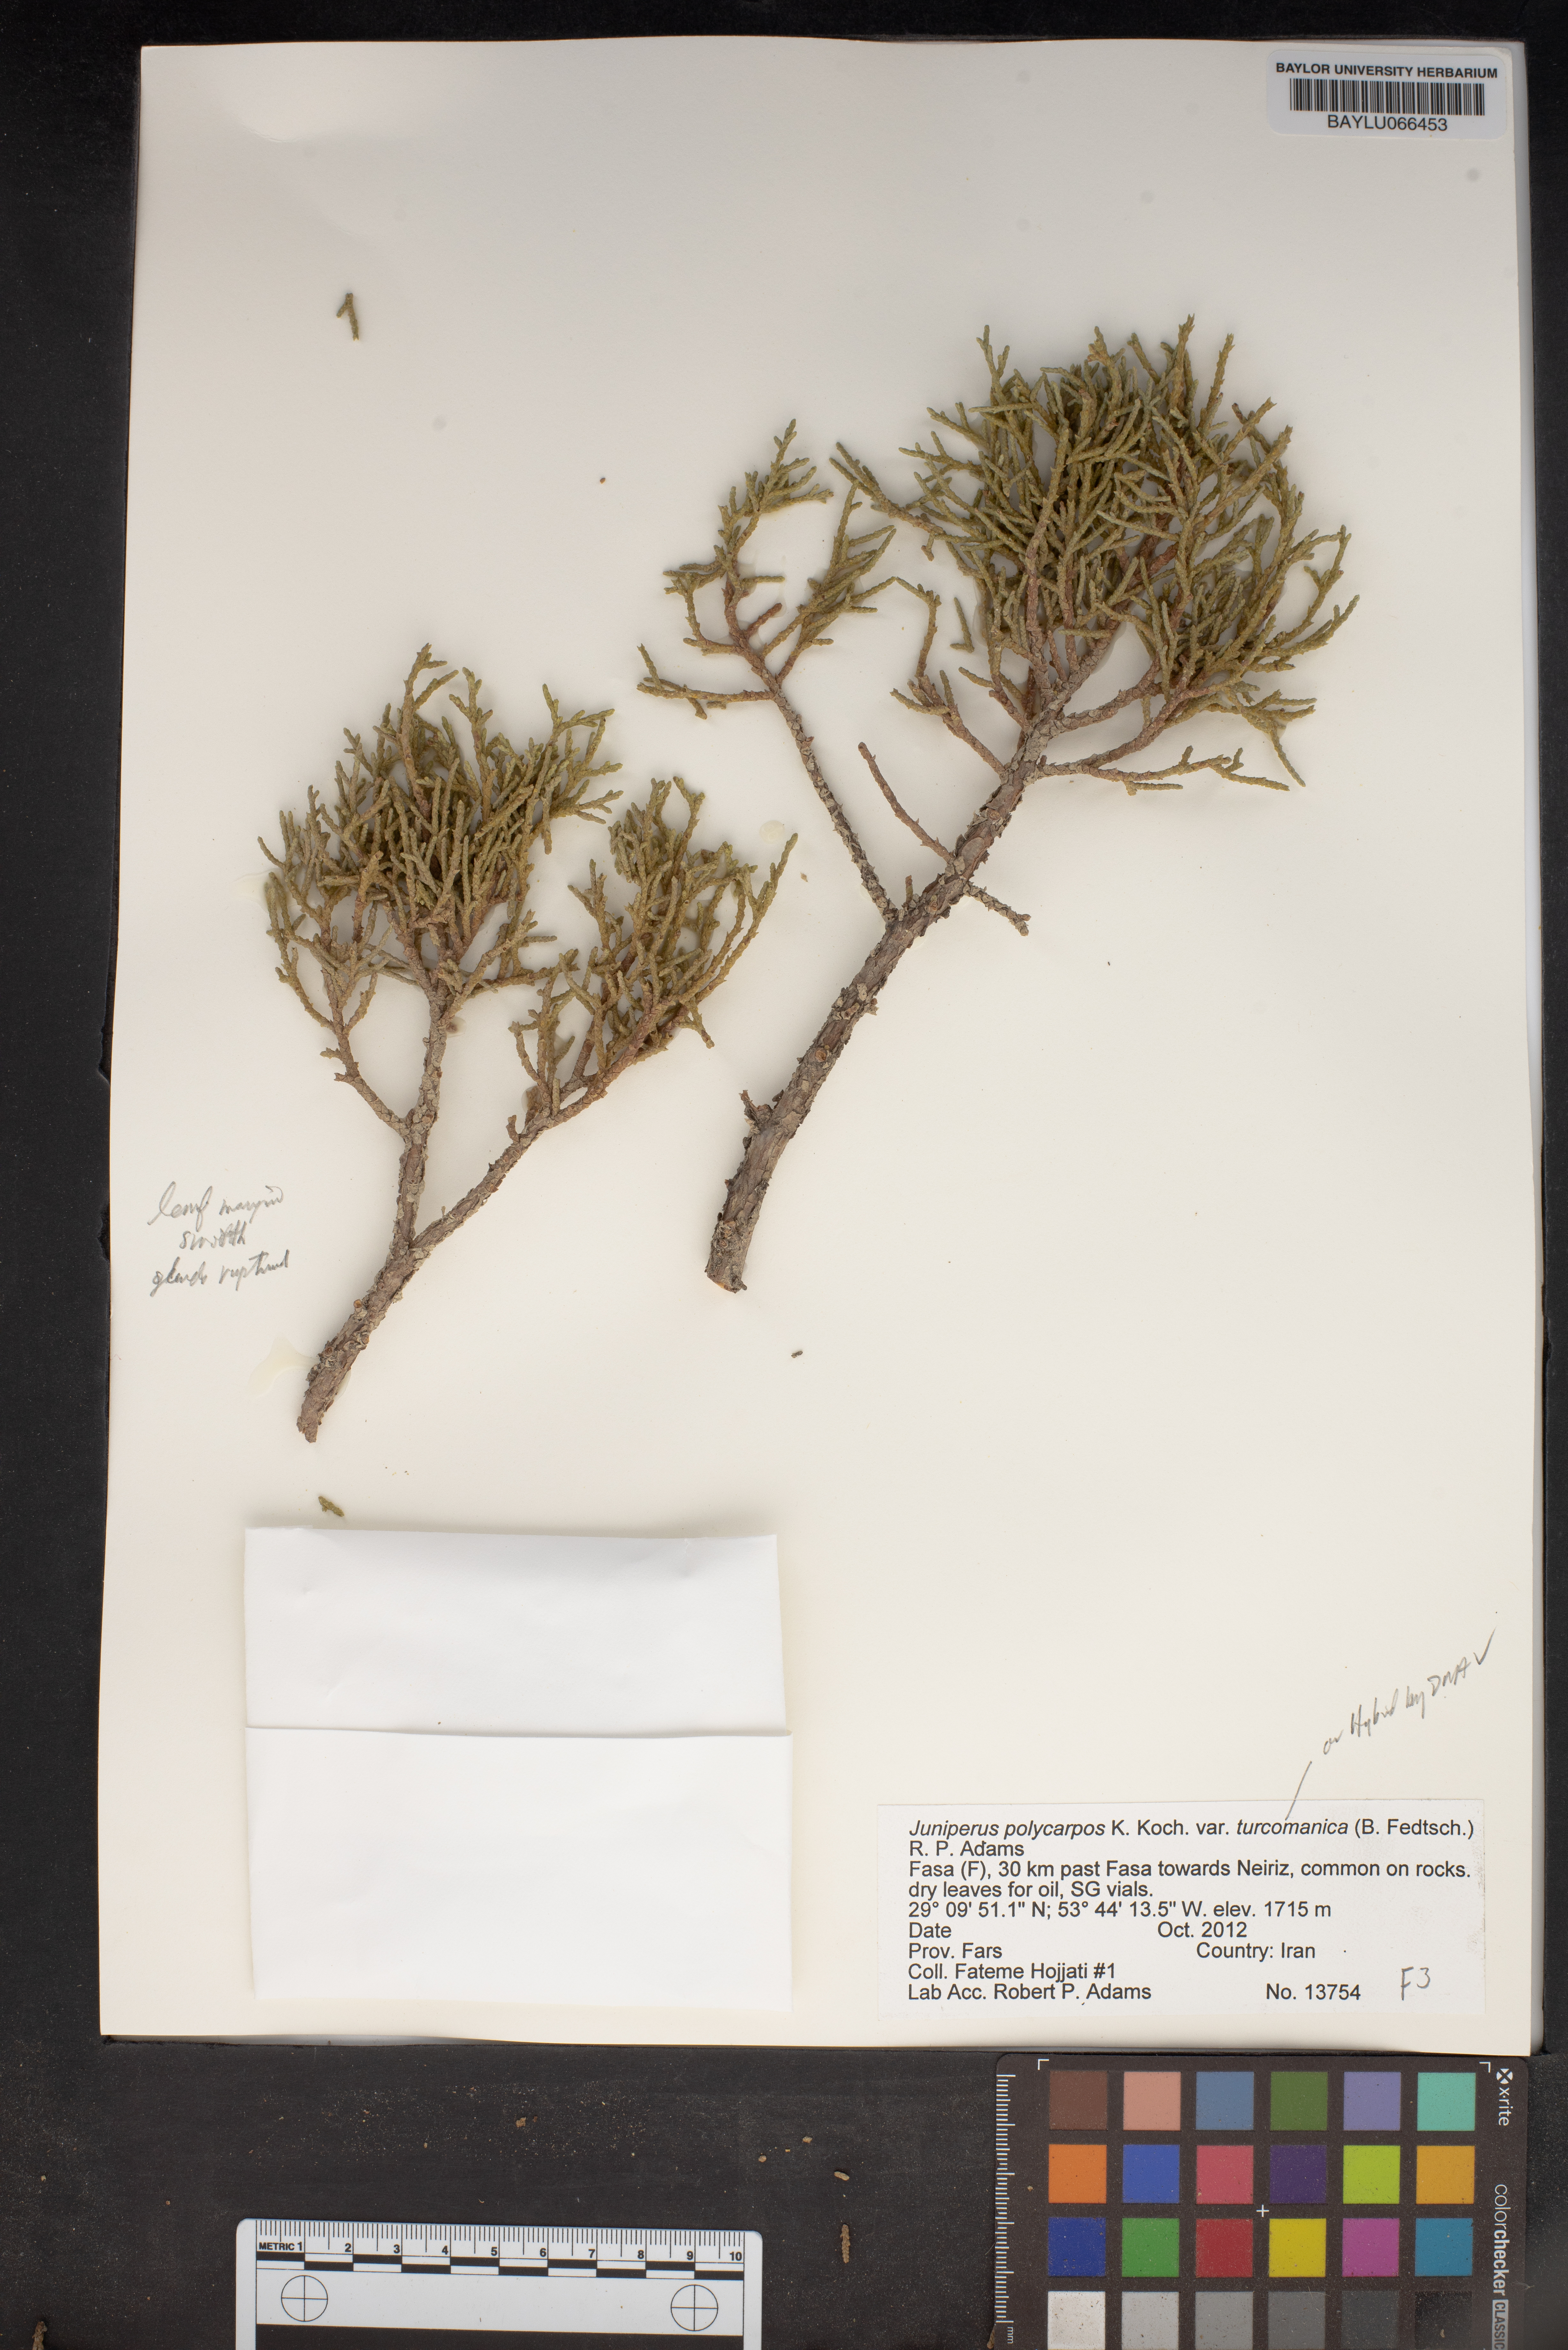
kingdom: Plantae
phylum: Tracheophyta
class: Pinopsida
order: Pinales
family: Cupressaceae
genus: Juniperus
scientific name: Juniperus excelsa
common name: Crimean juniper
